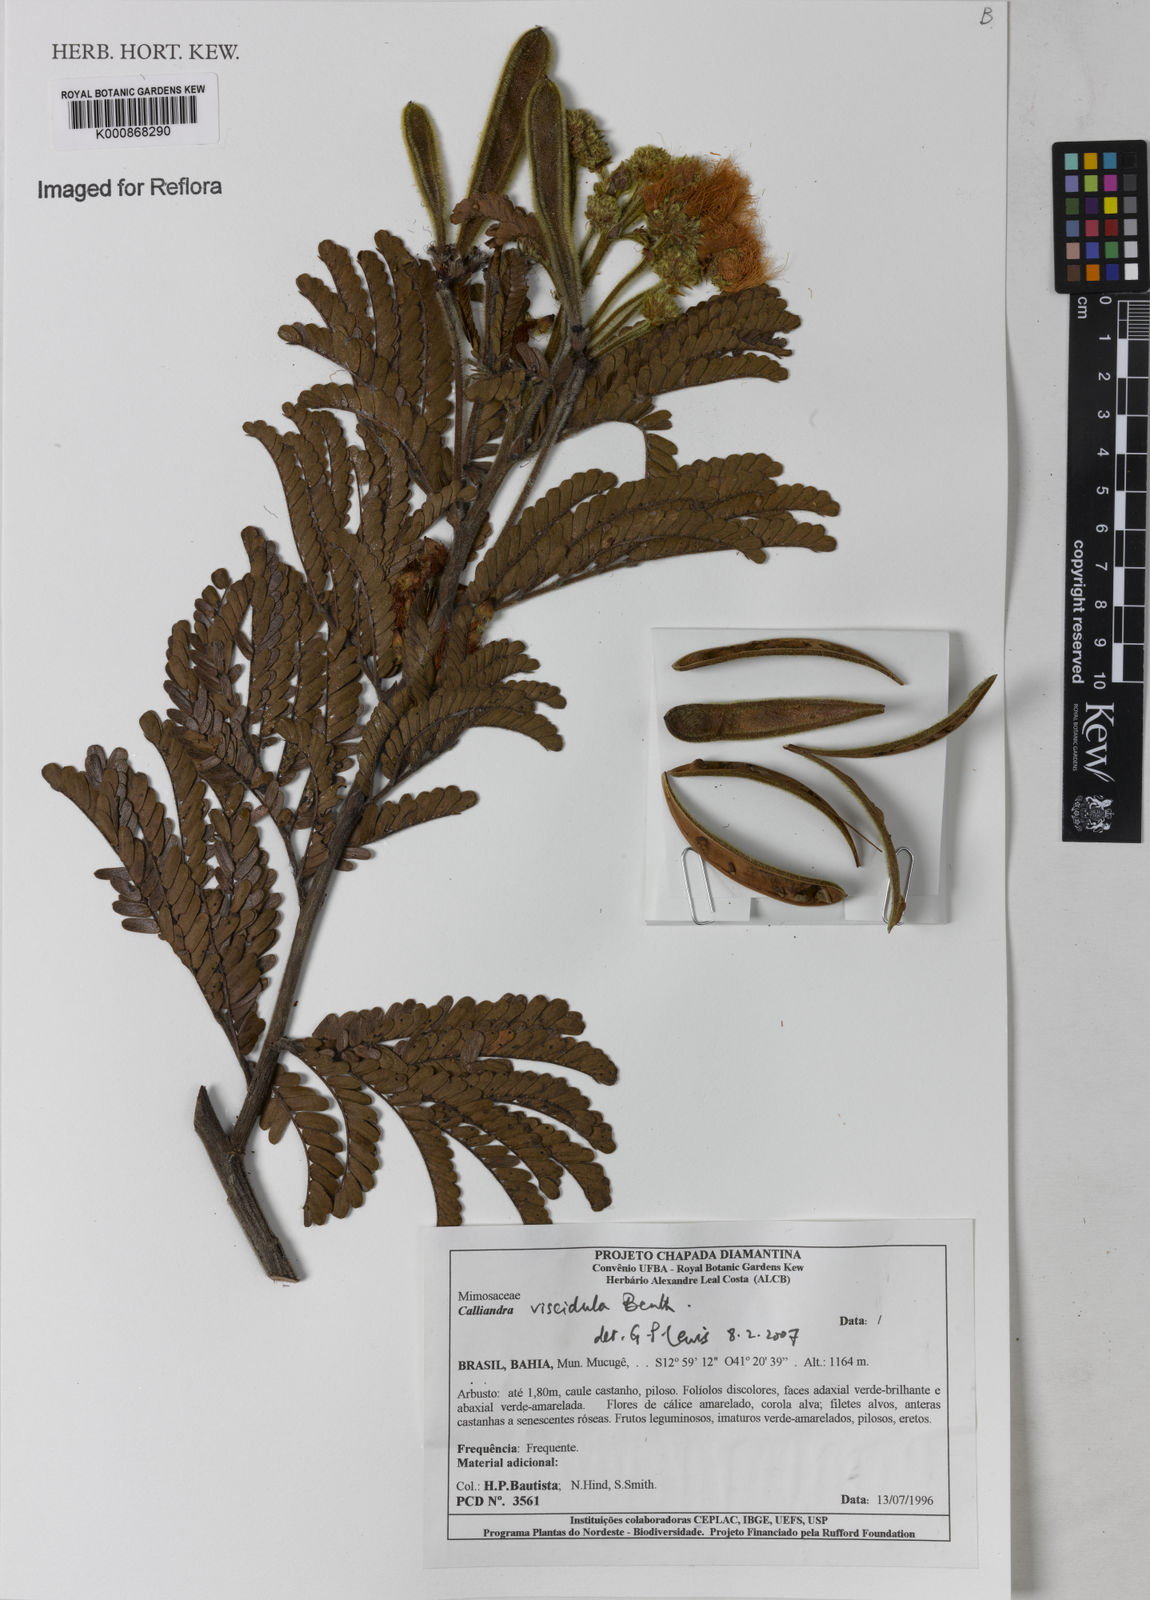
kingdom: Plantae
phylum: Tracheophyta
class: Magnoliopsida
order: Fabales
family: Fabaceae
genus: Calliandra
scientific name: Calliandra viscidula
